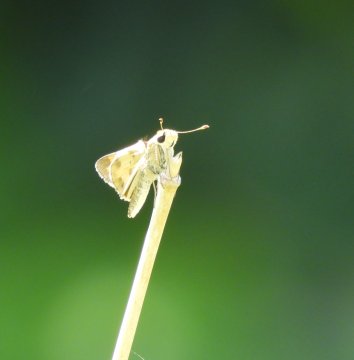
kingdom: Animalia
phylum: Arthropoda
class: Insecta
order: Lepidoptera
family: Hesperiidae
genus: Polites
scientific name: Polites vibex
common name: Whirlabout
